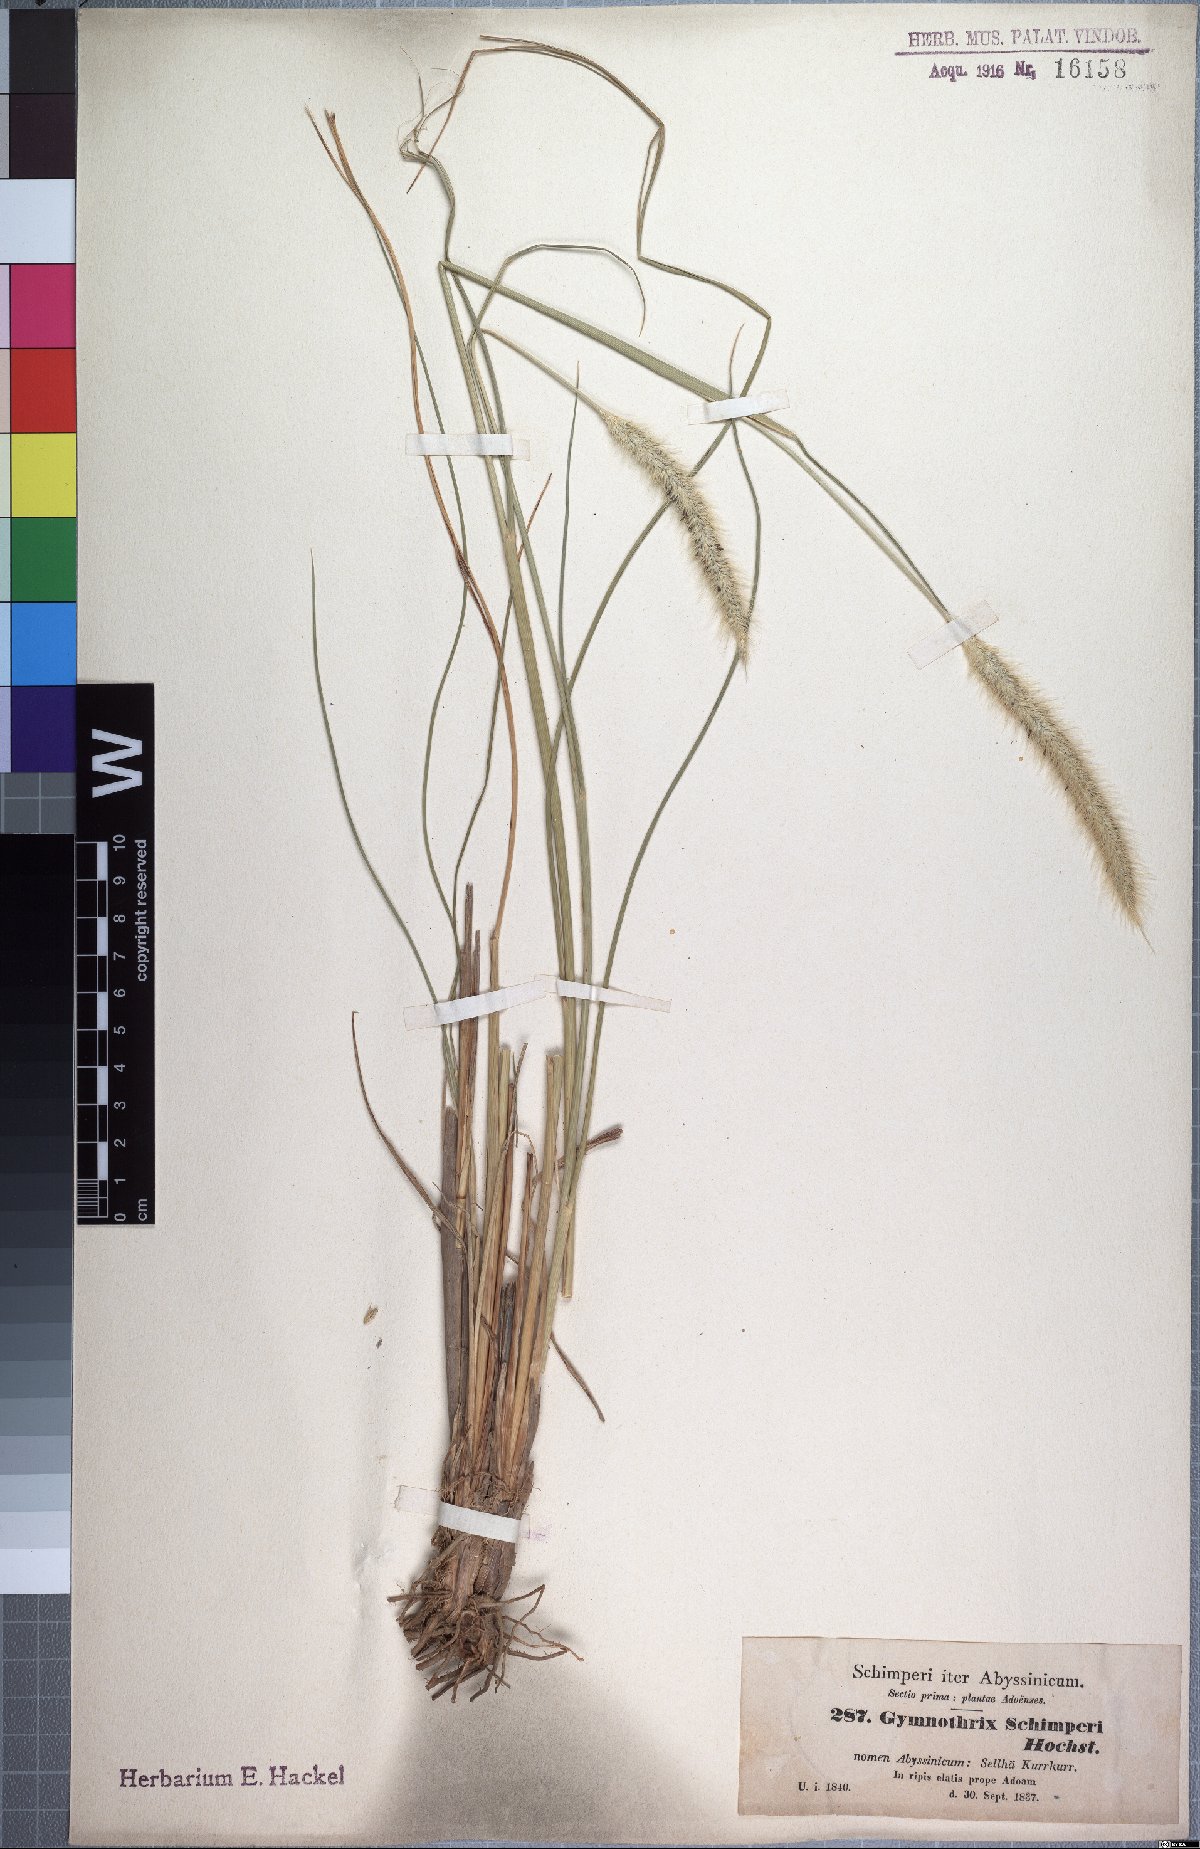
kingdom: Plantae
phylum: Tracheophyta
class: Liliopsida
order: Poales
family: Poaceae
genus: Cenchrus
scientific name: Cenchrus sphacelatus
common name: Bulgras
